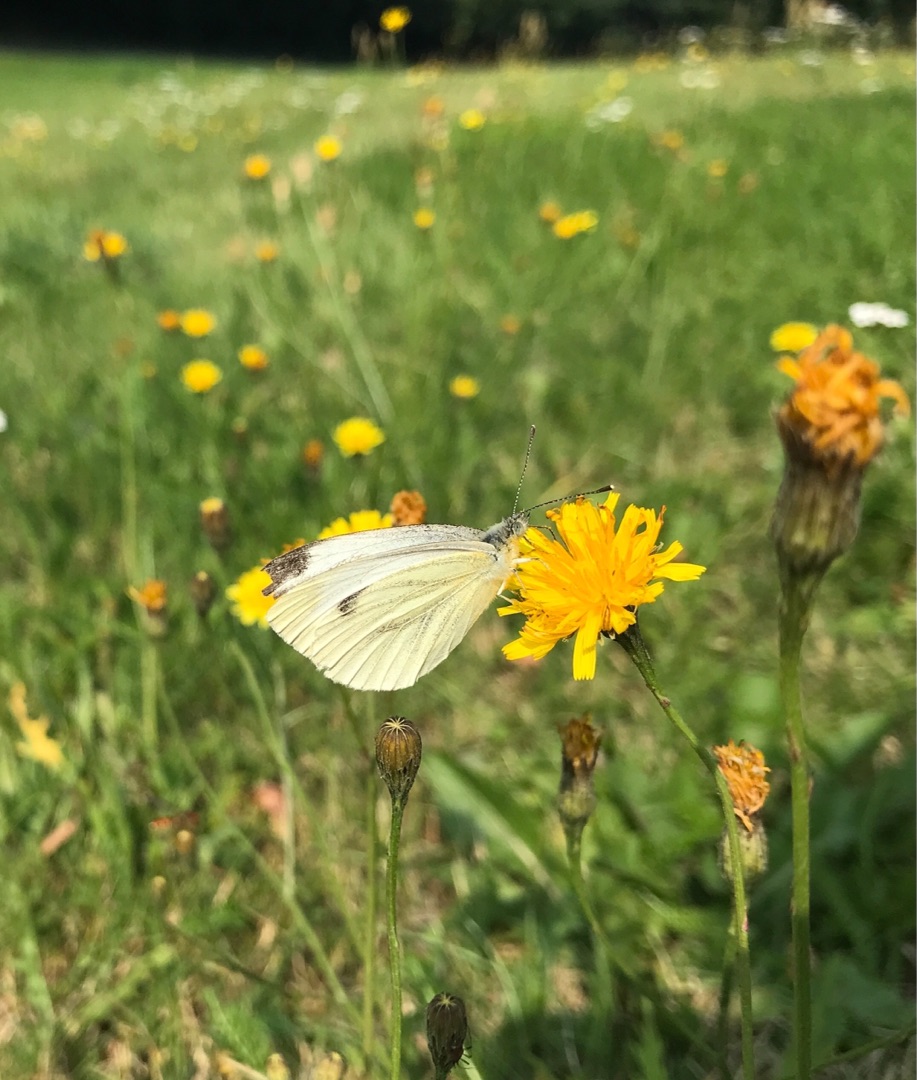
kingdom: Animalia
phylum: Arthropoda
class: Insecta
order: Lepidoptera
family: Pieridae
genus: Pieris
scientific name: Pieris napi
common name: Grønåret kålsommerfugl
